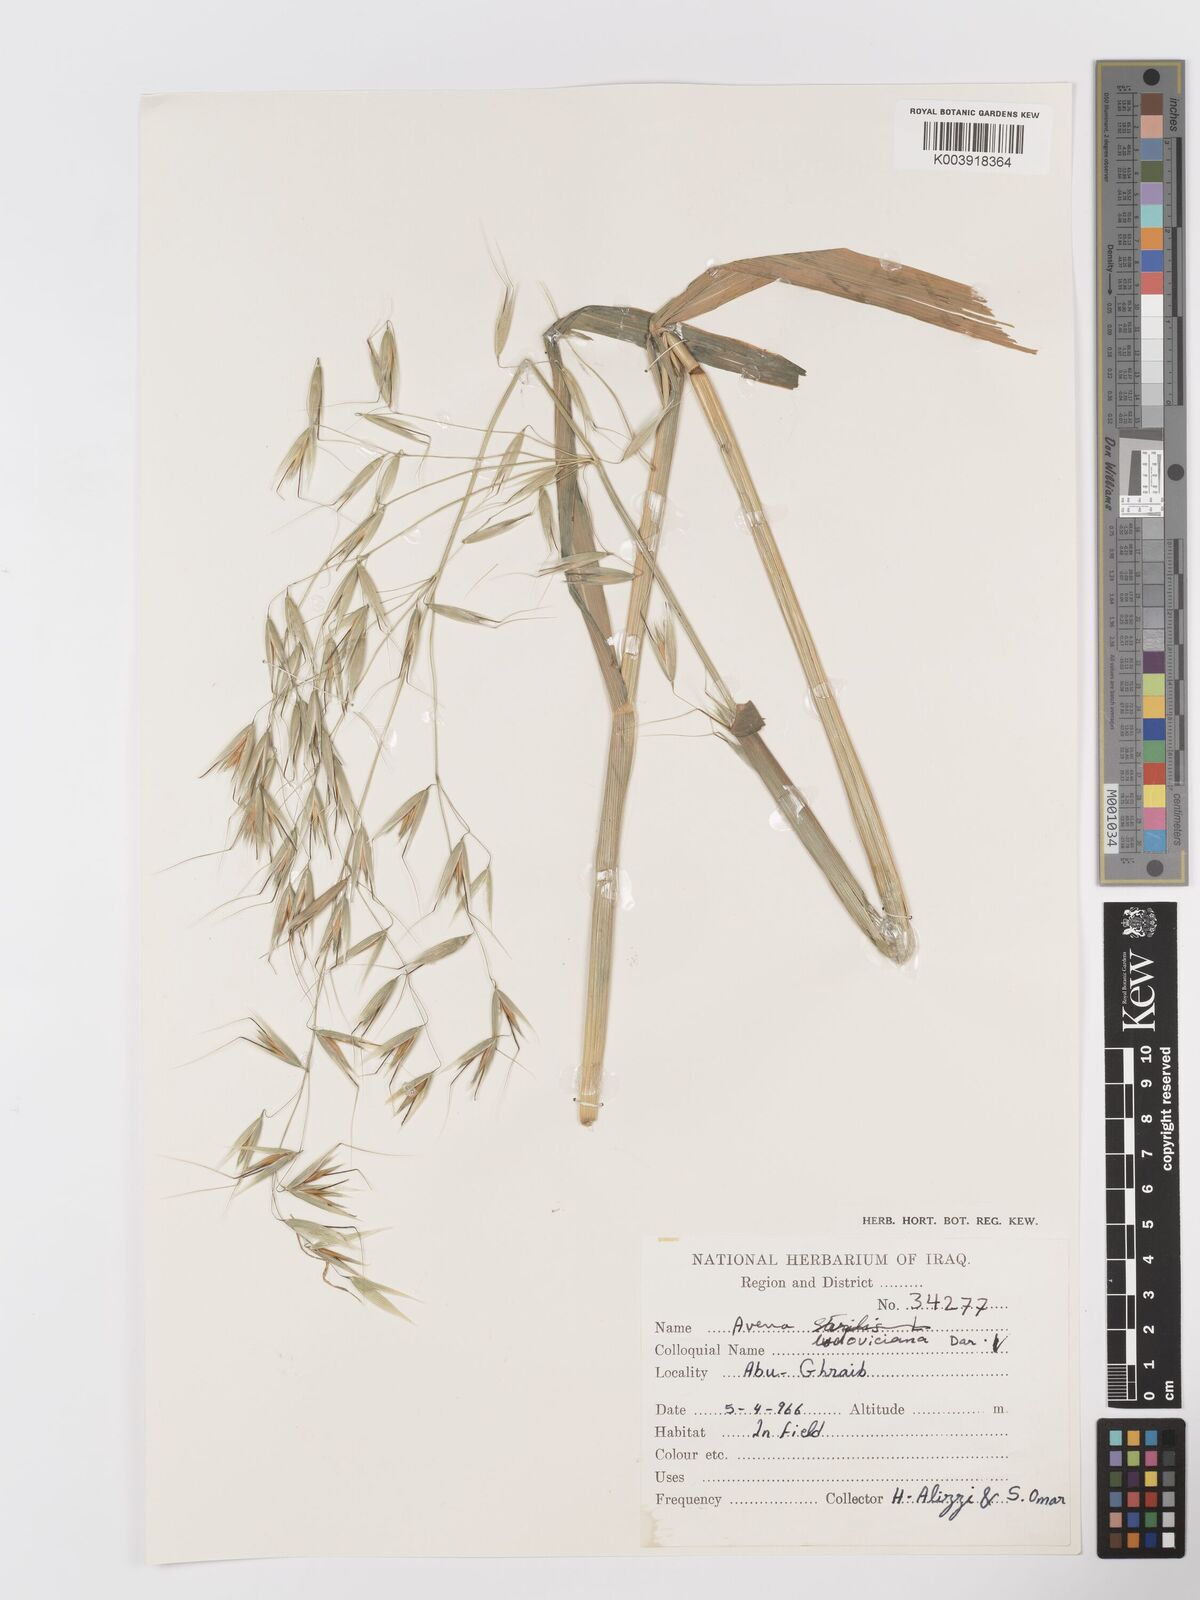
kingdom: Plantae
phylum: Tracheophyta
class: Liliopsida
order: Poales
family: Poaceae
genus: Avena
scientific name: Avena sterilis
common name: Animated oat
